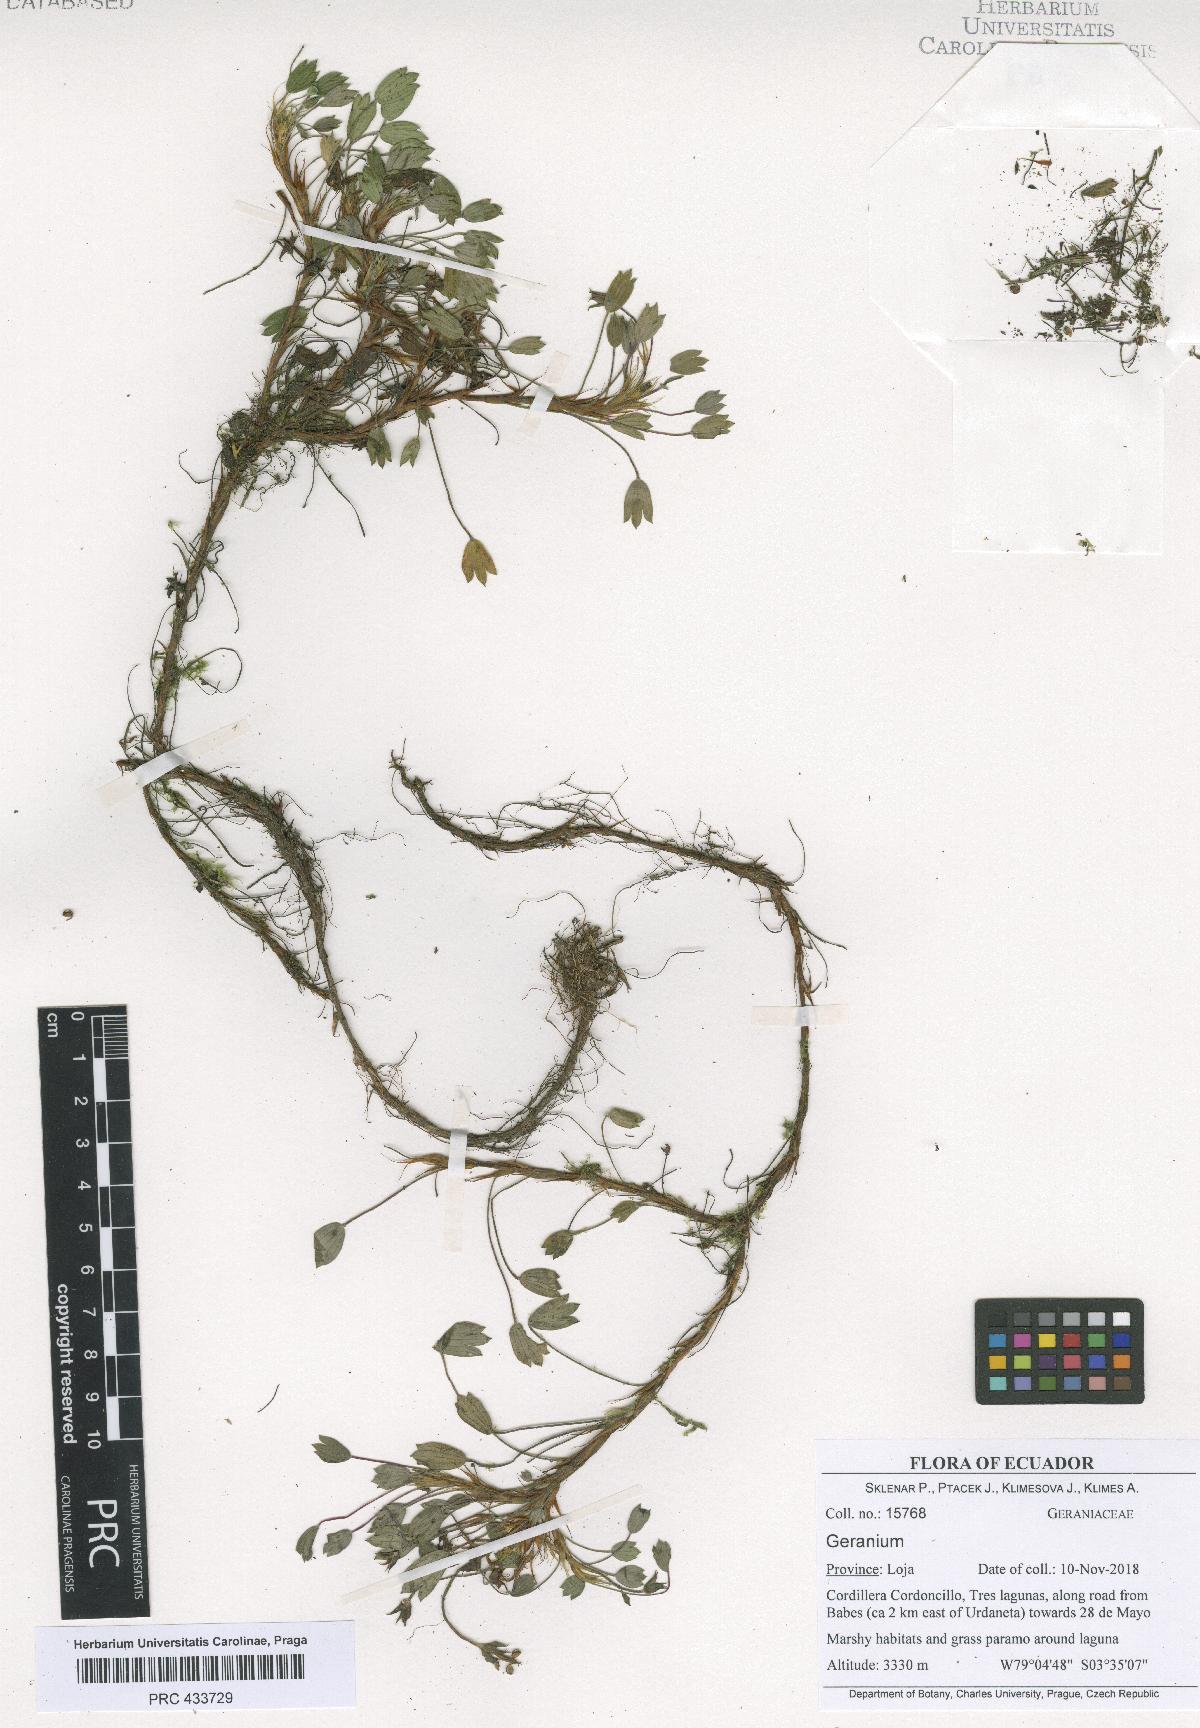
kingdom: Plantae
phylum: Tracheophyta
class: Magnoliopsida
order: Geraniales
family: Geraniaceae
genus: Geranium
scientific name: Geranium azorelloides
